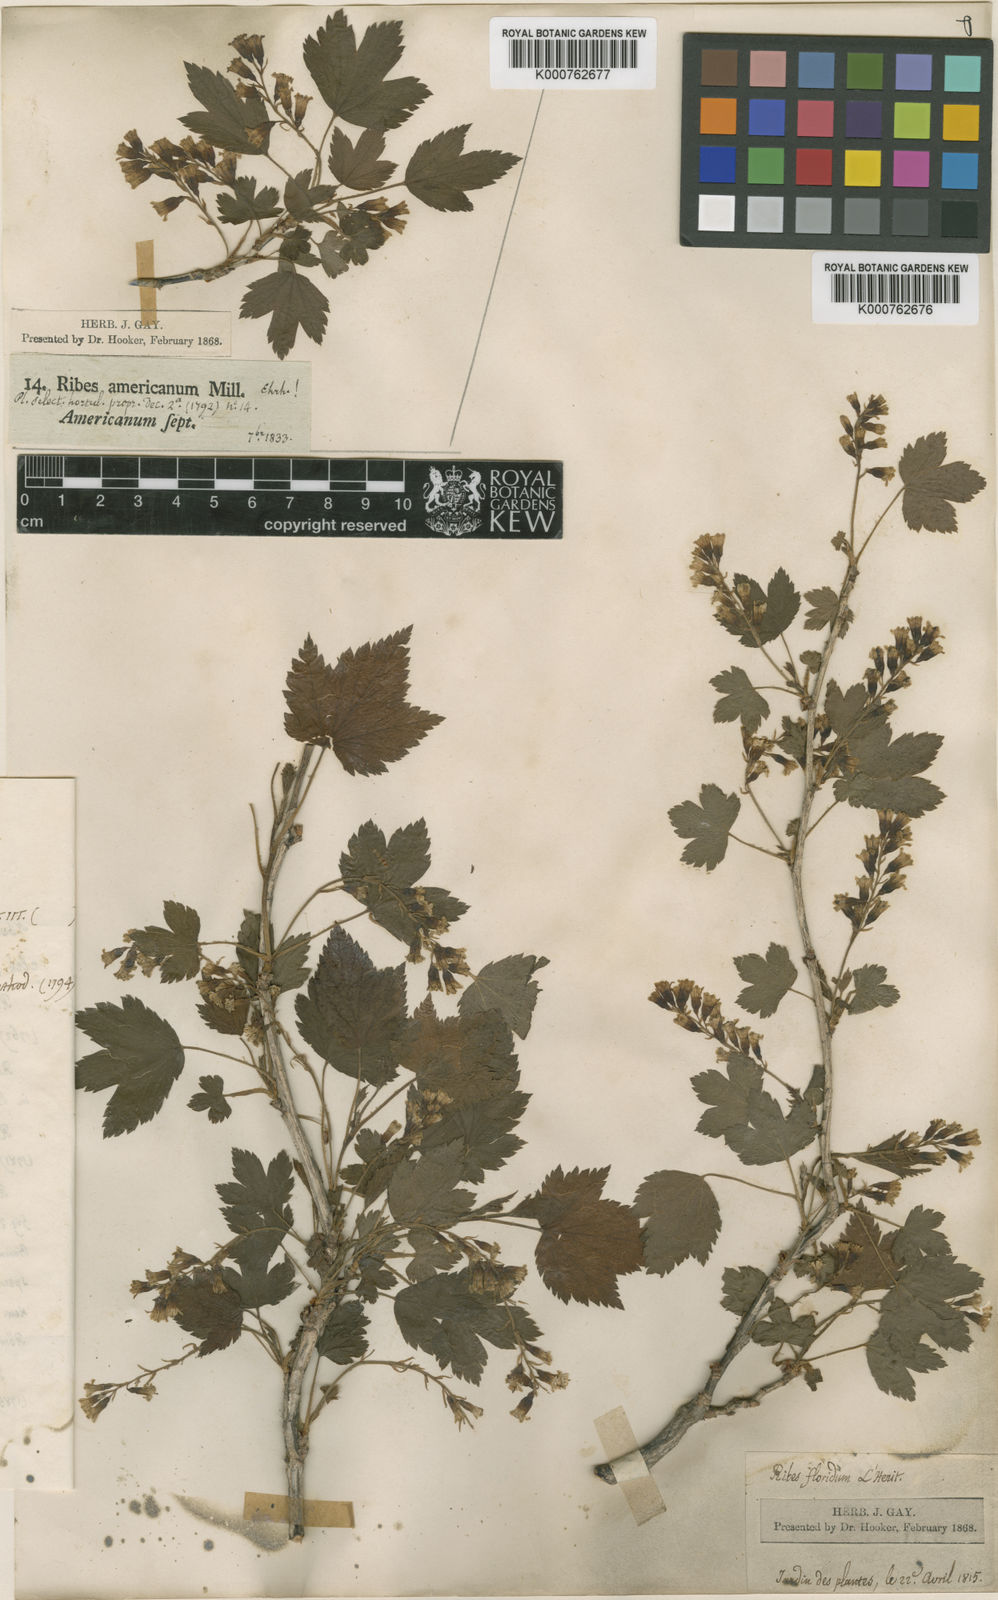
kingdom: Plantae
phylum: Tracheophyta
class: Magnoliopsida
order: Saxifragales
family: Grossulariaceae
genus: Ribes
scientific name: Ribes americanum
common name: American black currant
